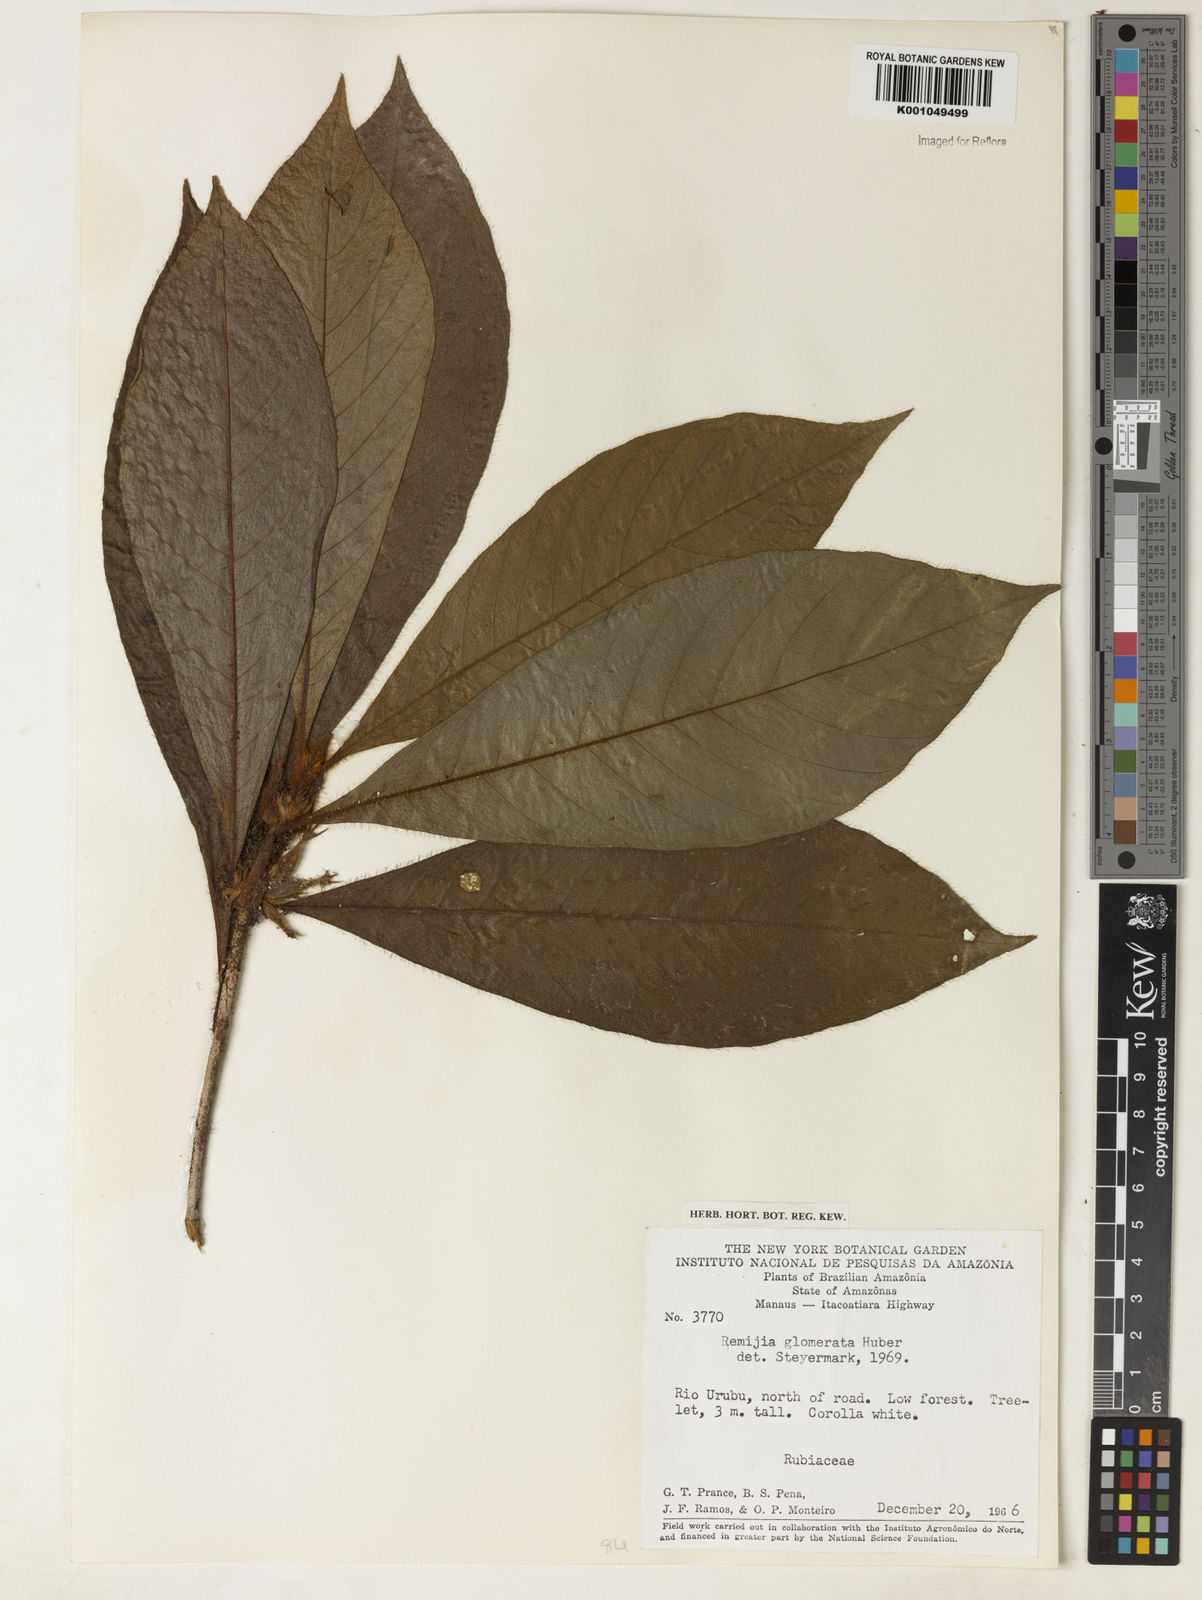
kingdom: Plantae
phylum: Tracheophyta
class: Magnoliopsida
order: Gentianales
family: Rubiaceae
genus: Remijia
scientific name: Remijia glomerata
